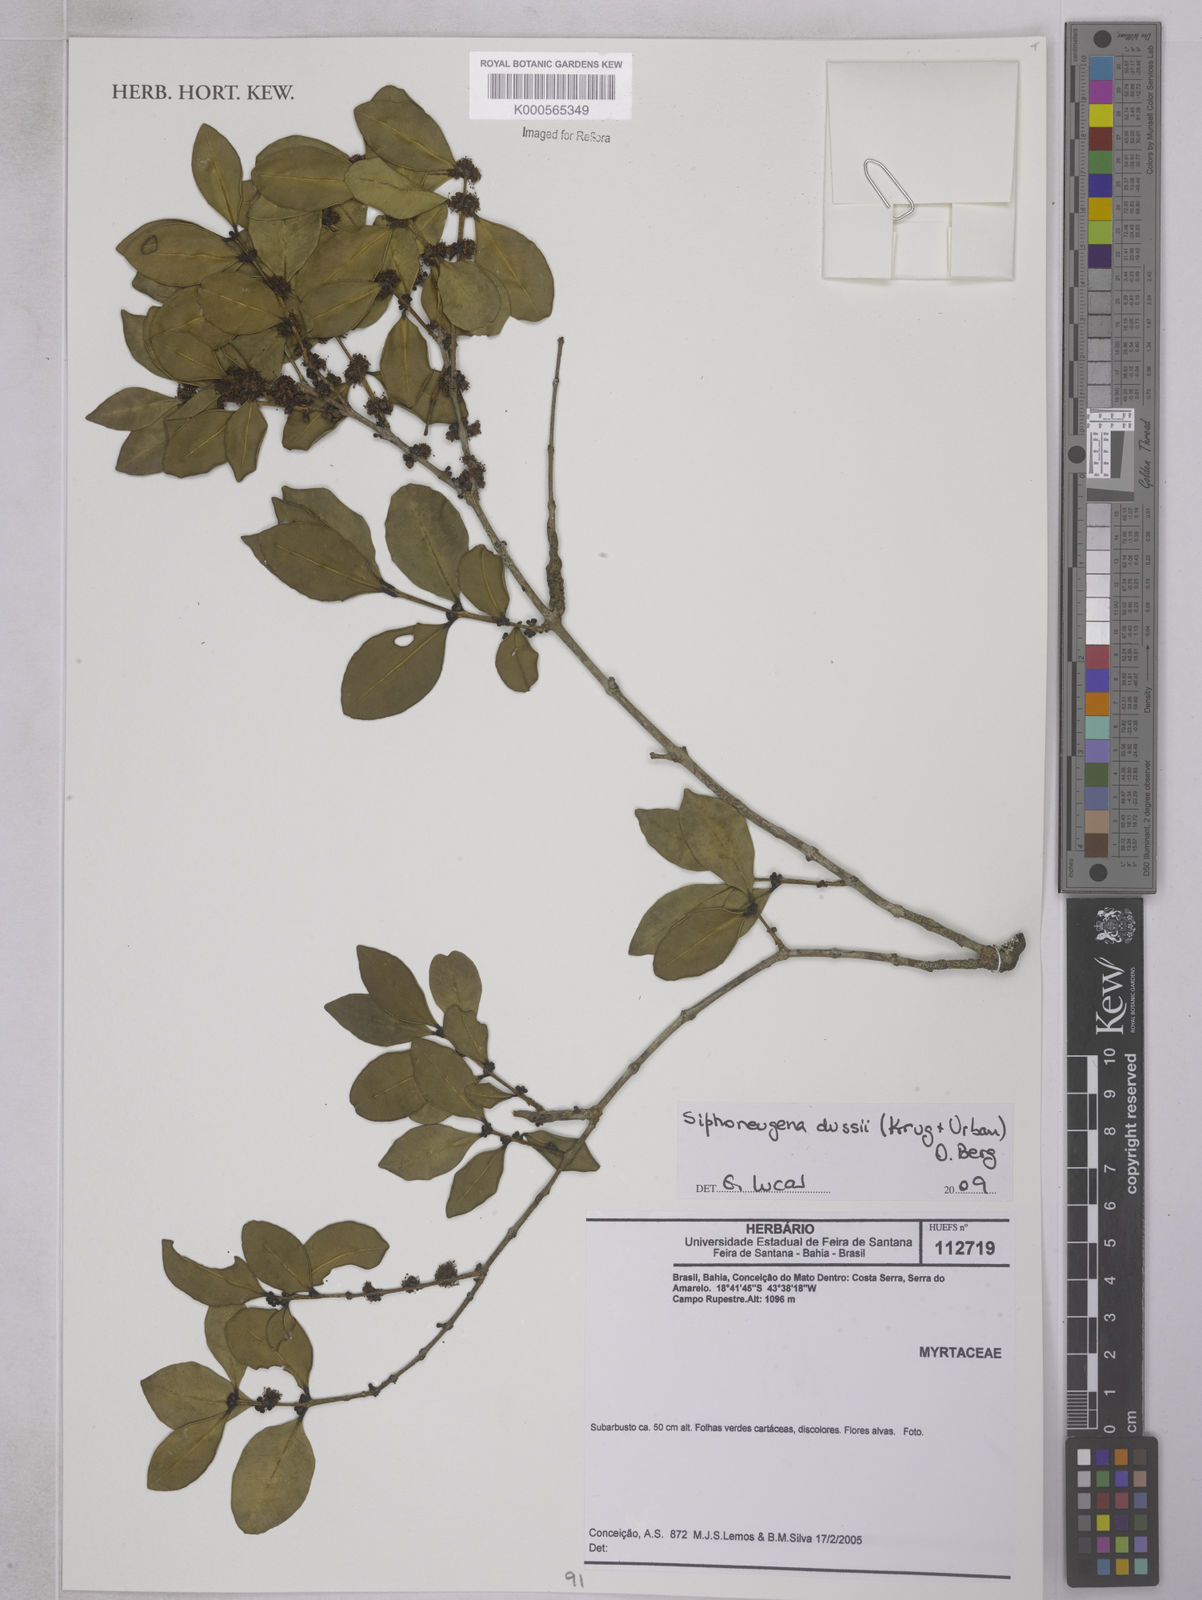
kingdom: Plantae
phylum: Tracheophyta
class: Magnoliopsida
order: Myrtales
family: Myrtaceae
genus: Siphoneugena
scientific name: Siphoneugena
